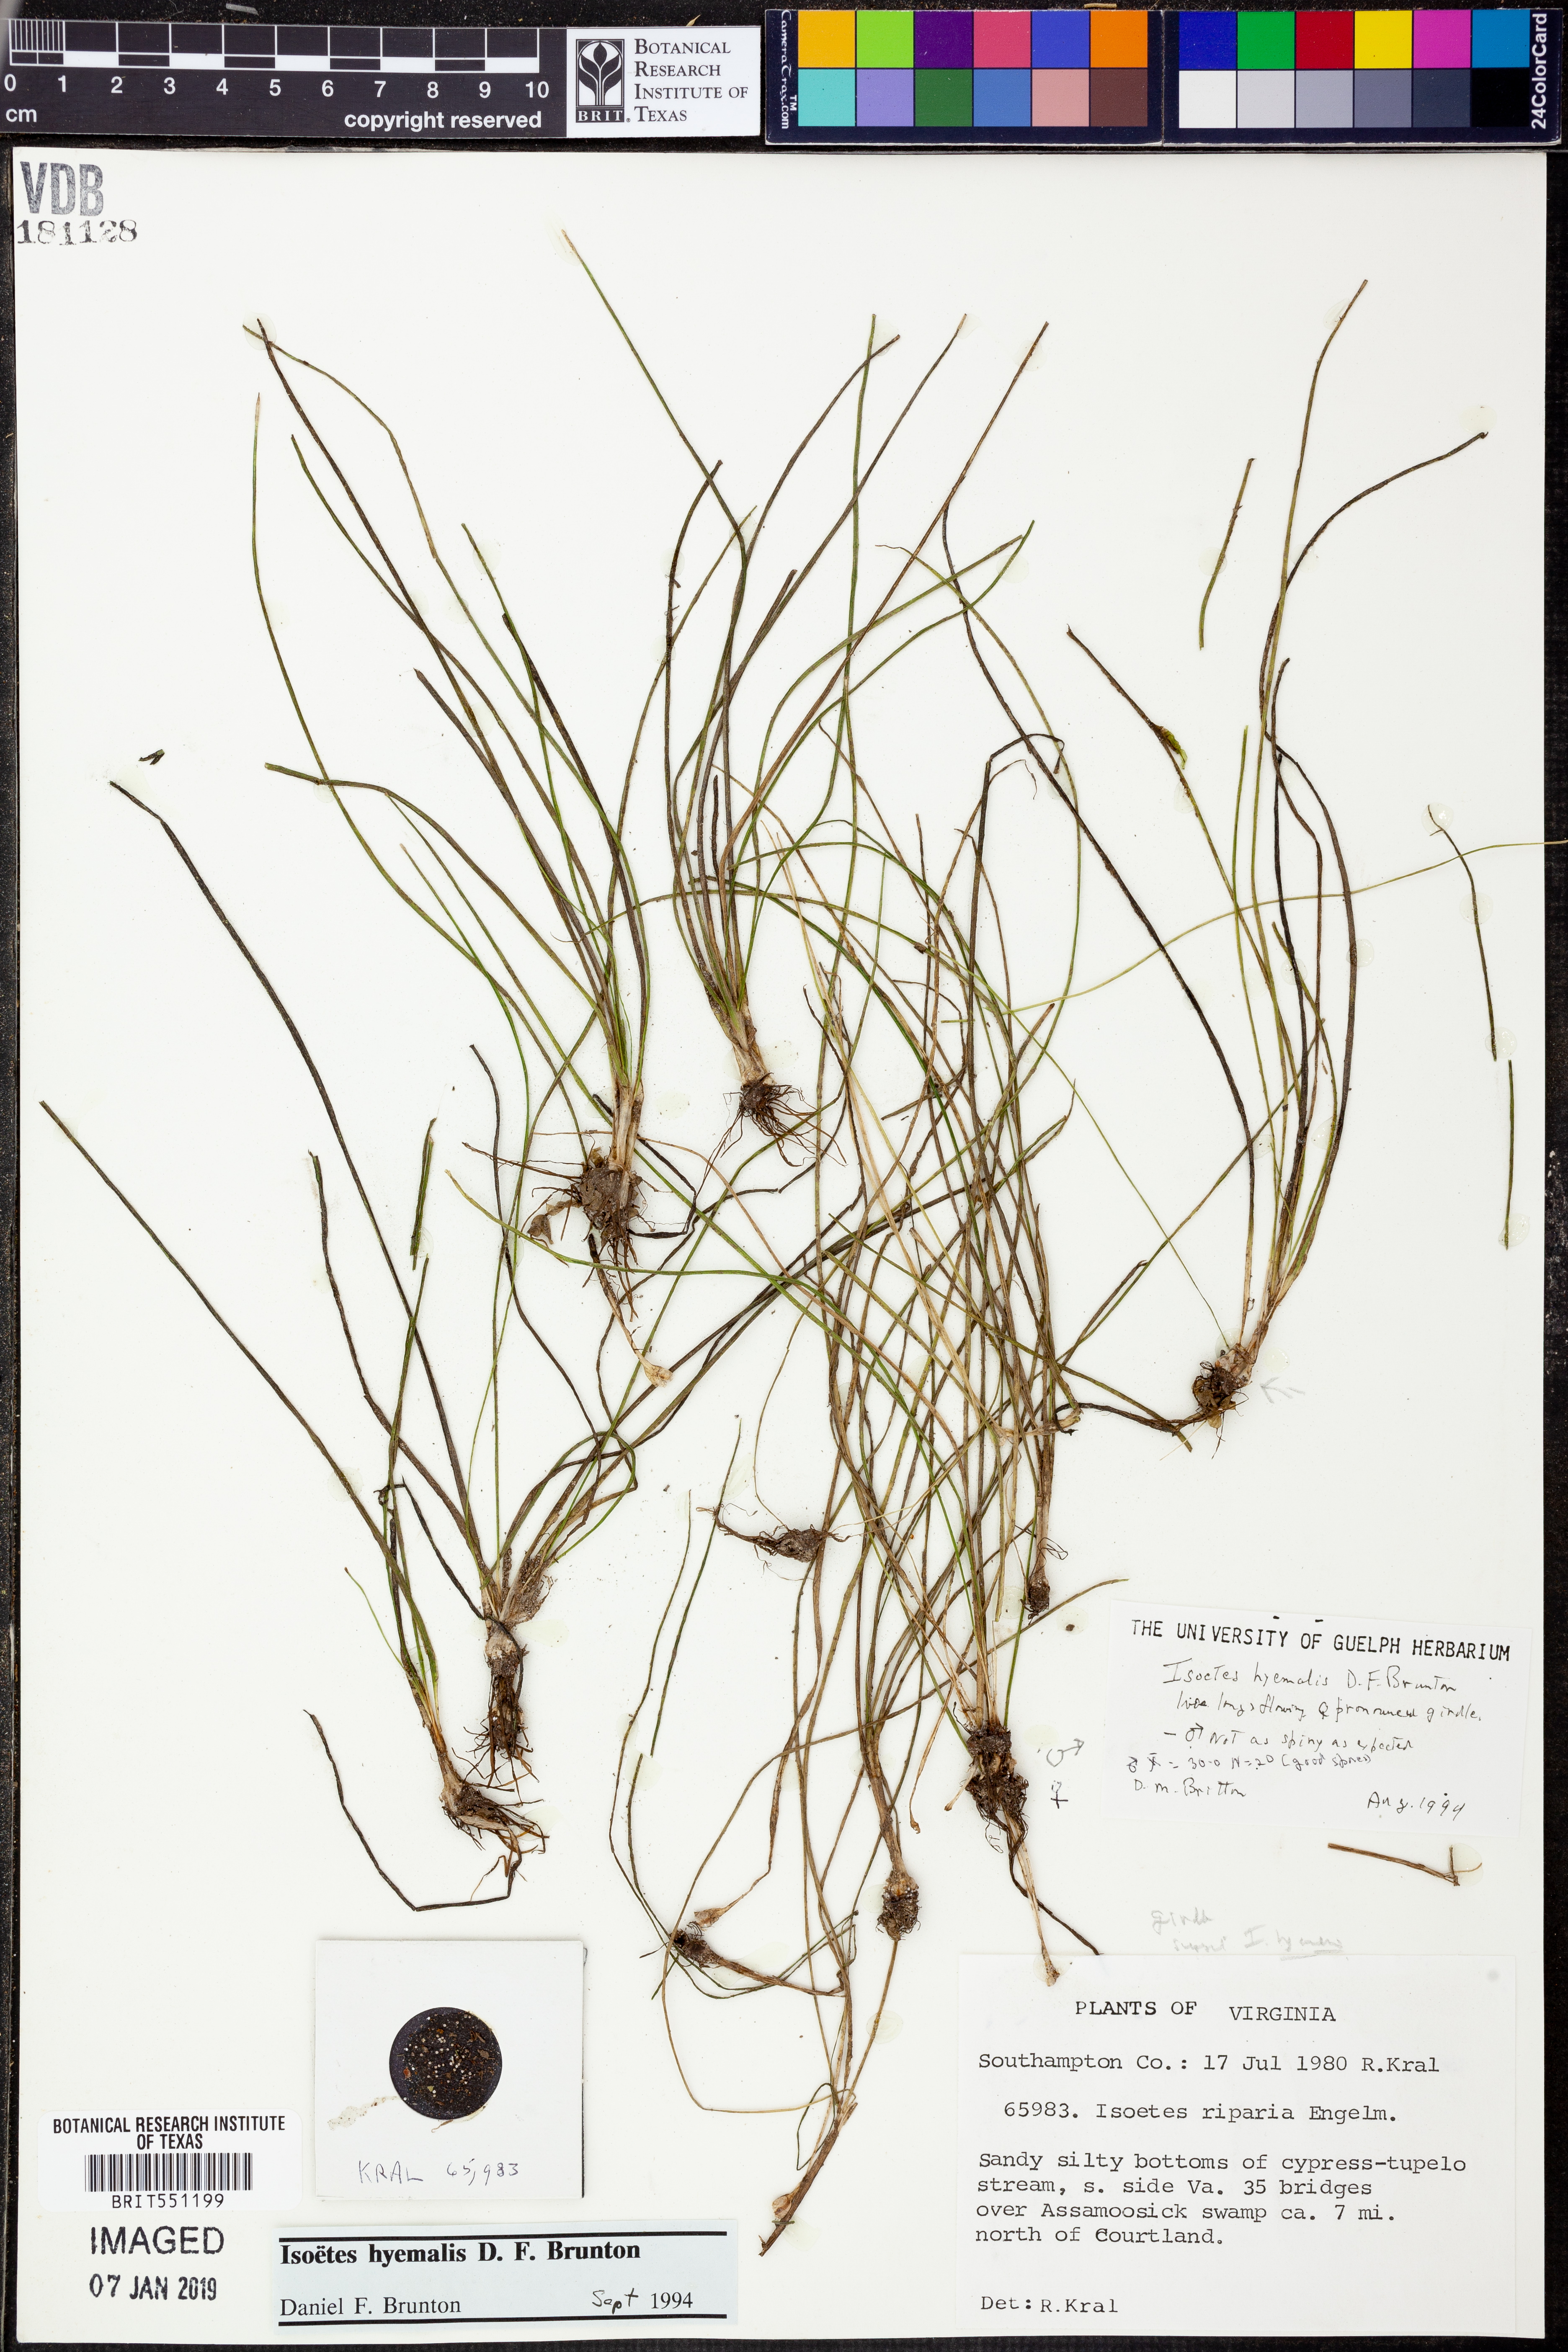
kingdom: Plantae
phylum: Tracheophyta
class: Lycopodiopsida
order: Isoetales
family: Isoetaceae
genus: Isoetes
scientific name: Isoetes hyemalis
